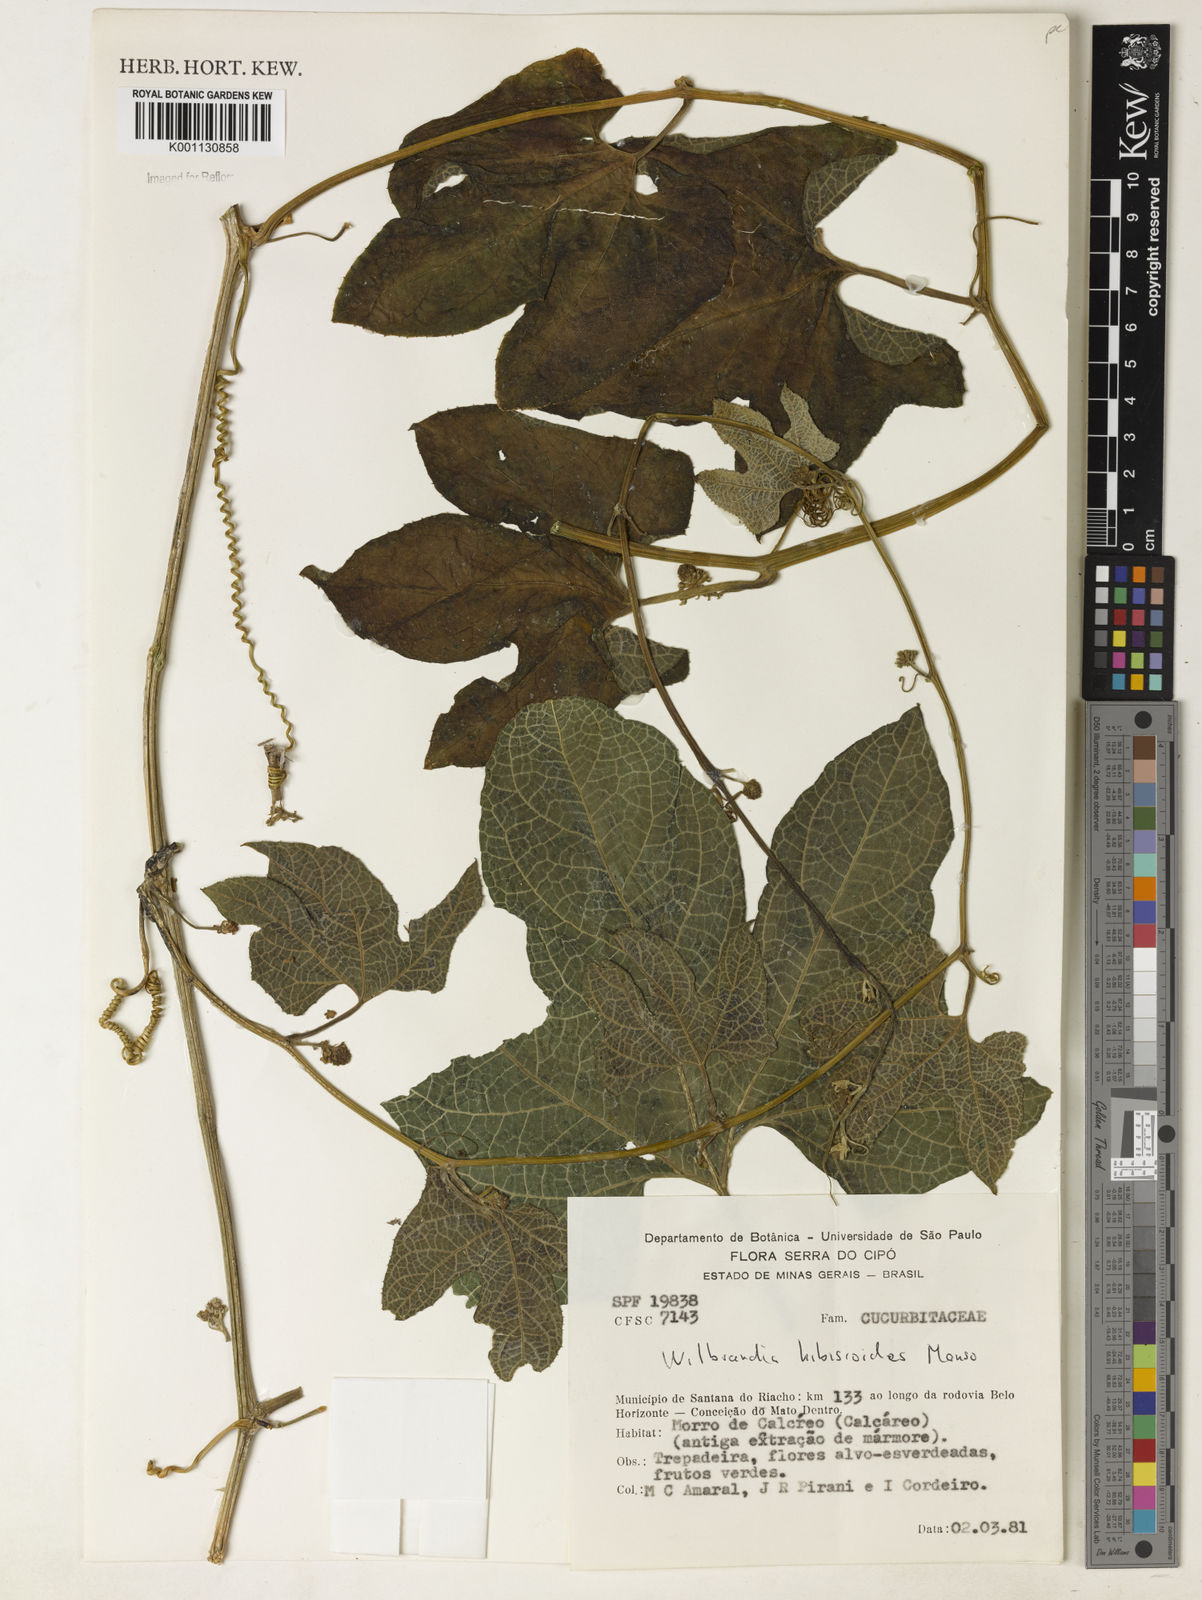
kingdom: Plantae
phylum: Tracheophyta
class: Magnoliopsida
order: Cucurbitales
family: Cucurbitaceae
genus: Wilbrandia
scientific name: Wilbrandia hibiscoides
